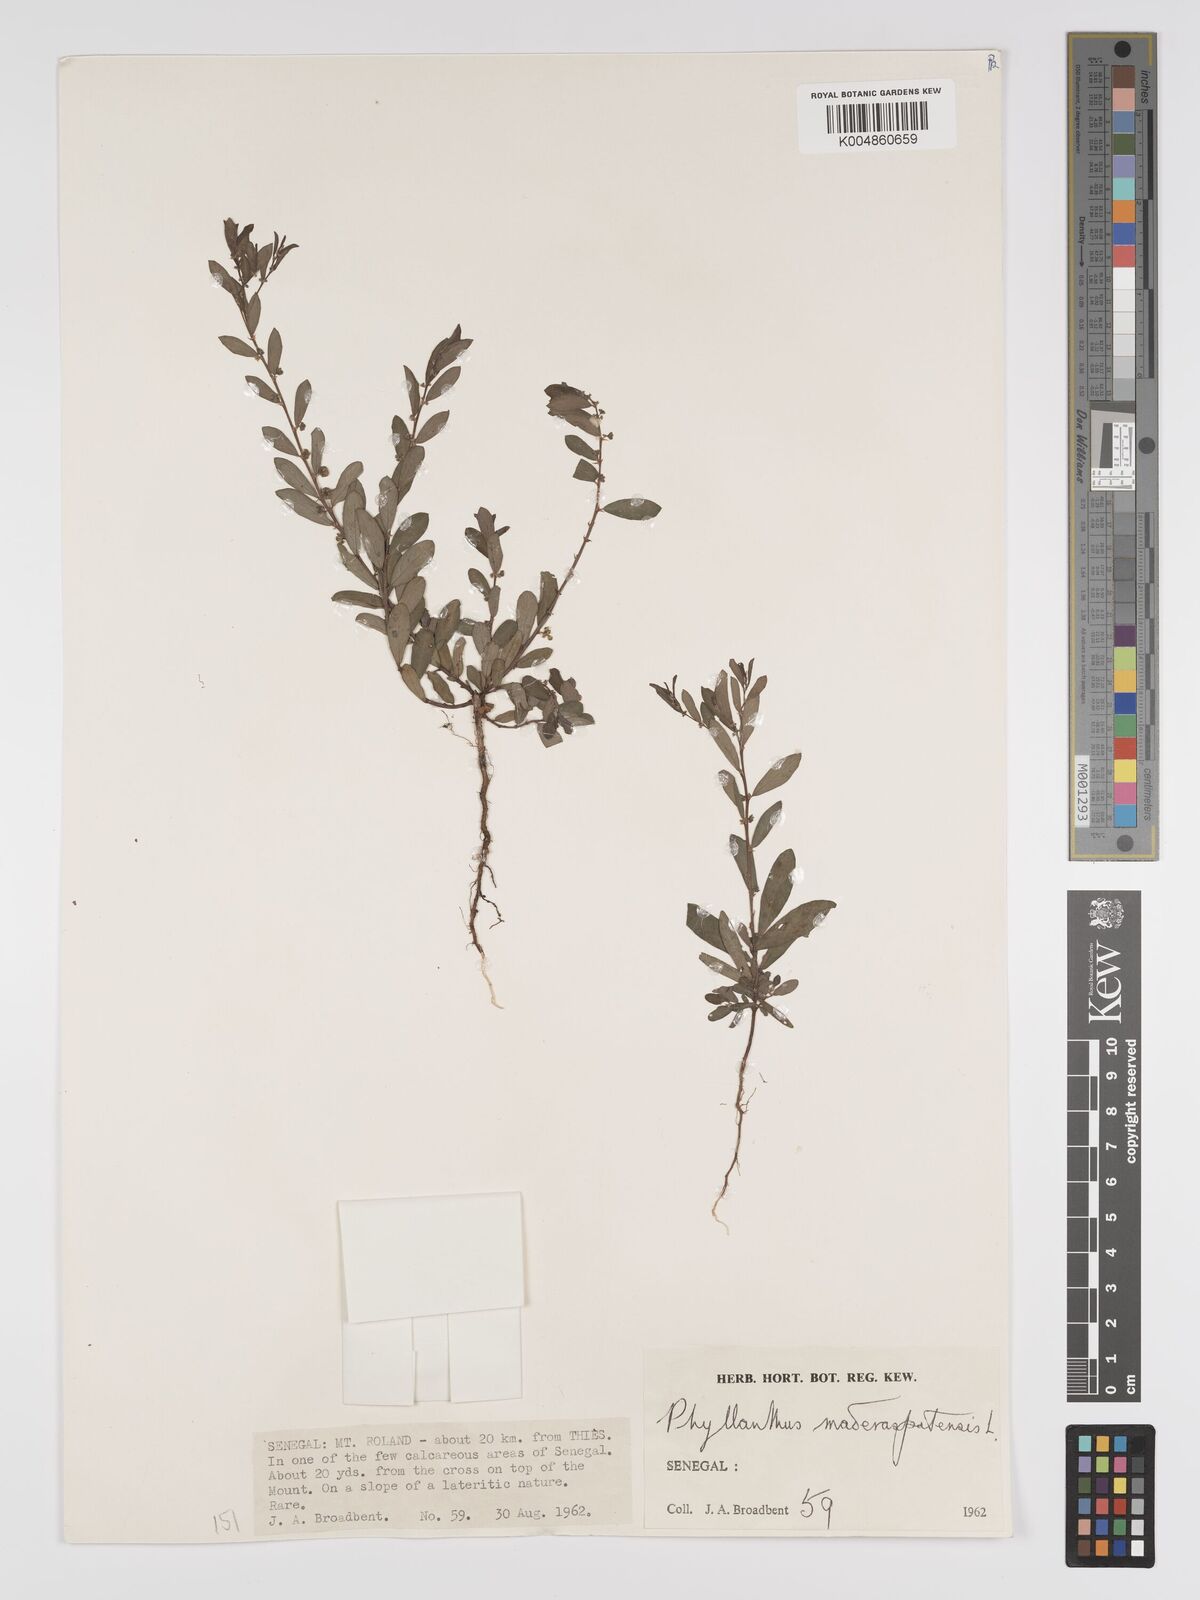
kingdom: Plantae
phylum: Tracheophyta
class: Magnoliopsida
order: Malpighiales
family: Phyllanthaceae
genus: Phyllanthus
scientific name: Phyllanthus
